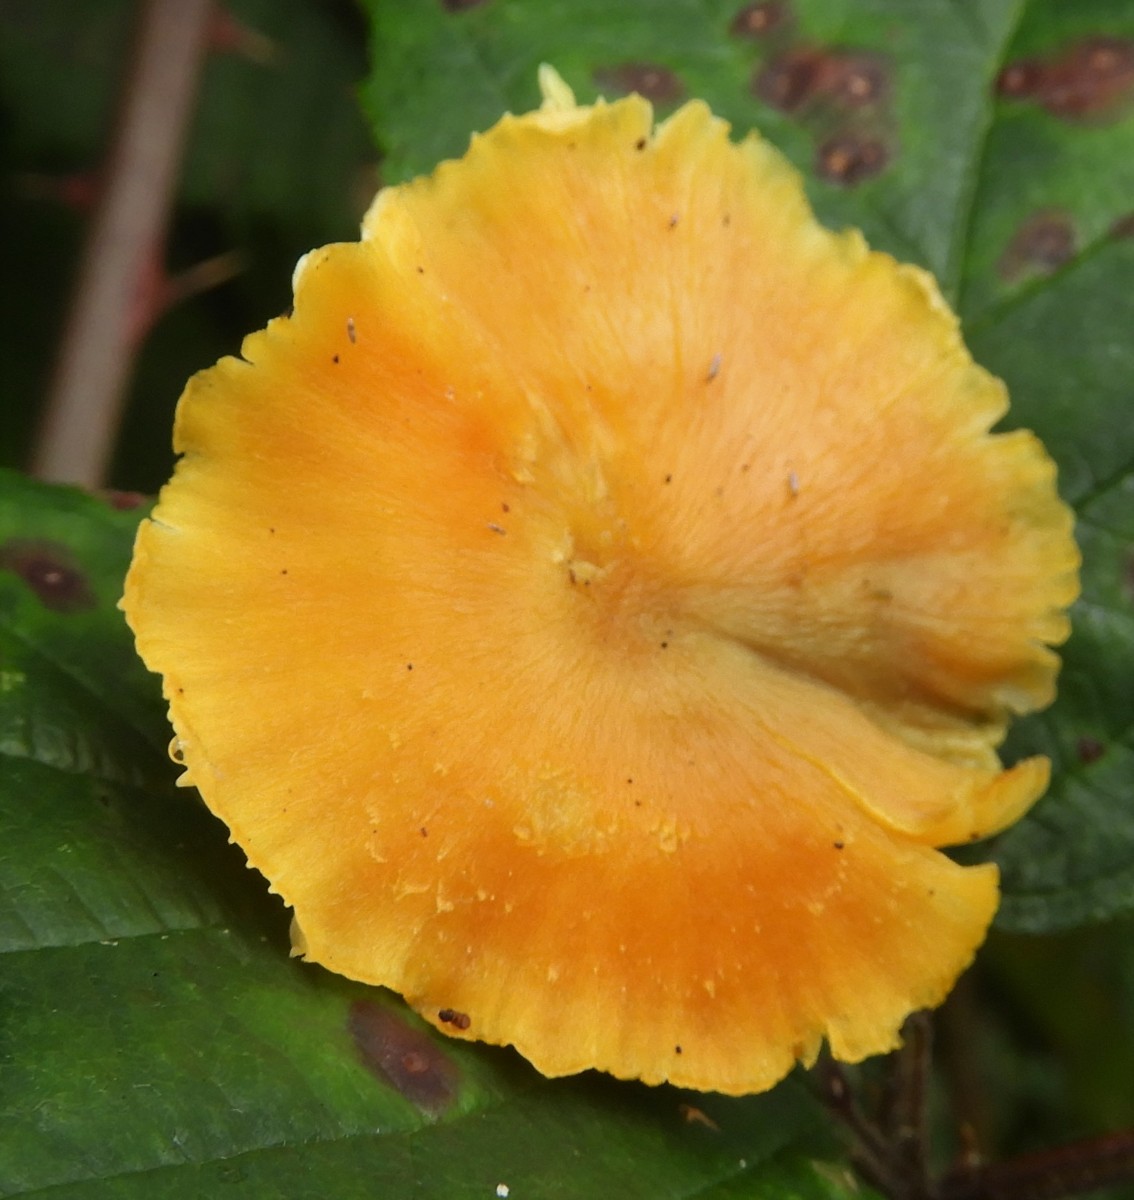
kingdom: Fungi
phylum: Basidiomycota
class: Agaricomycetes
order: Agaricales
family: Hygrophoraceae
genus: Hygrocybe
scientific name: Hygrocybe
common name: vokshat
